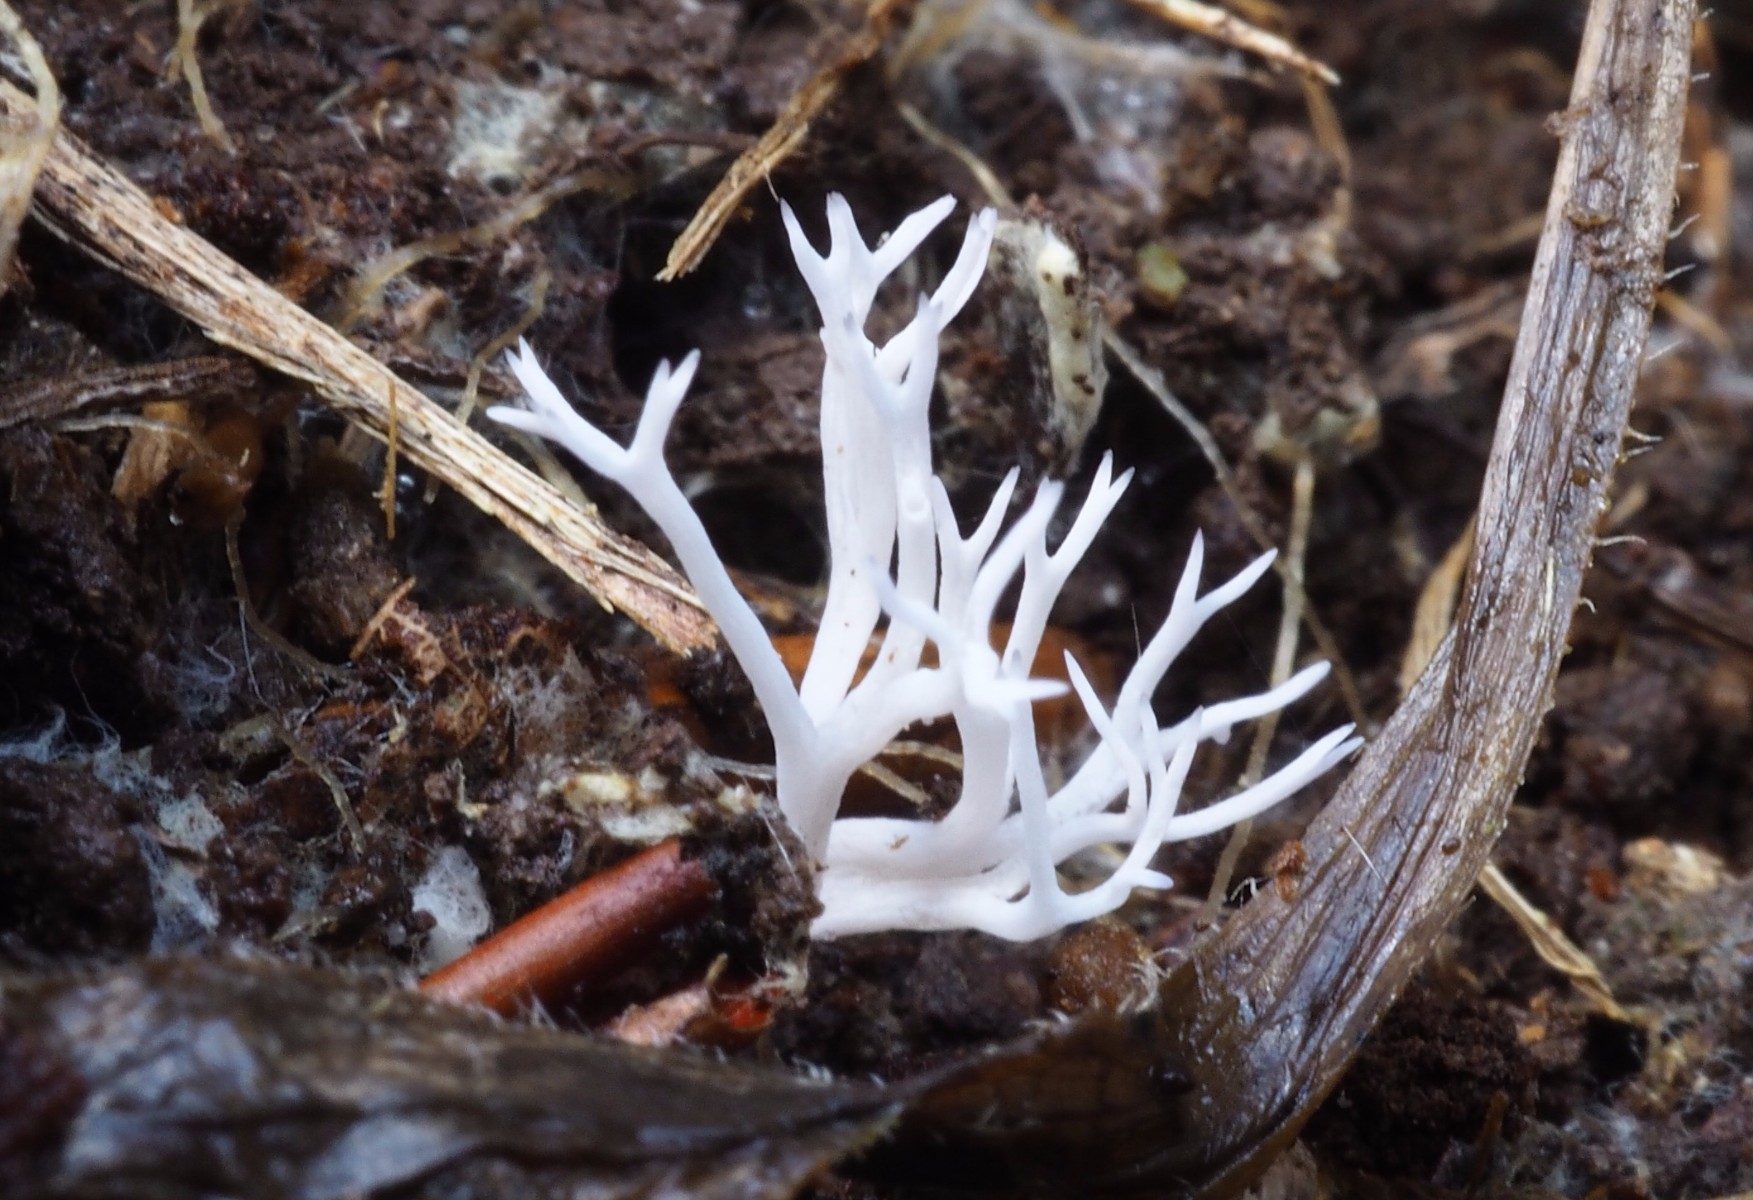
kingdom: Fungi
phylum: Basidiomycota
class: Agaricomycetes
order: Agaricales
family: Clavariaceae
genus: Ramariopsis
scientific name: Ramariopsis pulchella
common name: violet køllesvamp
